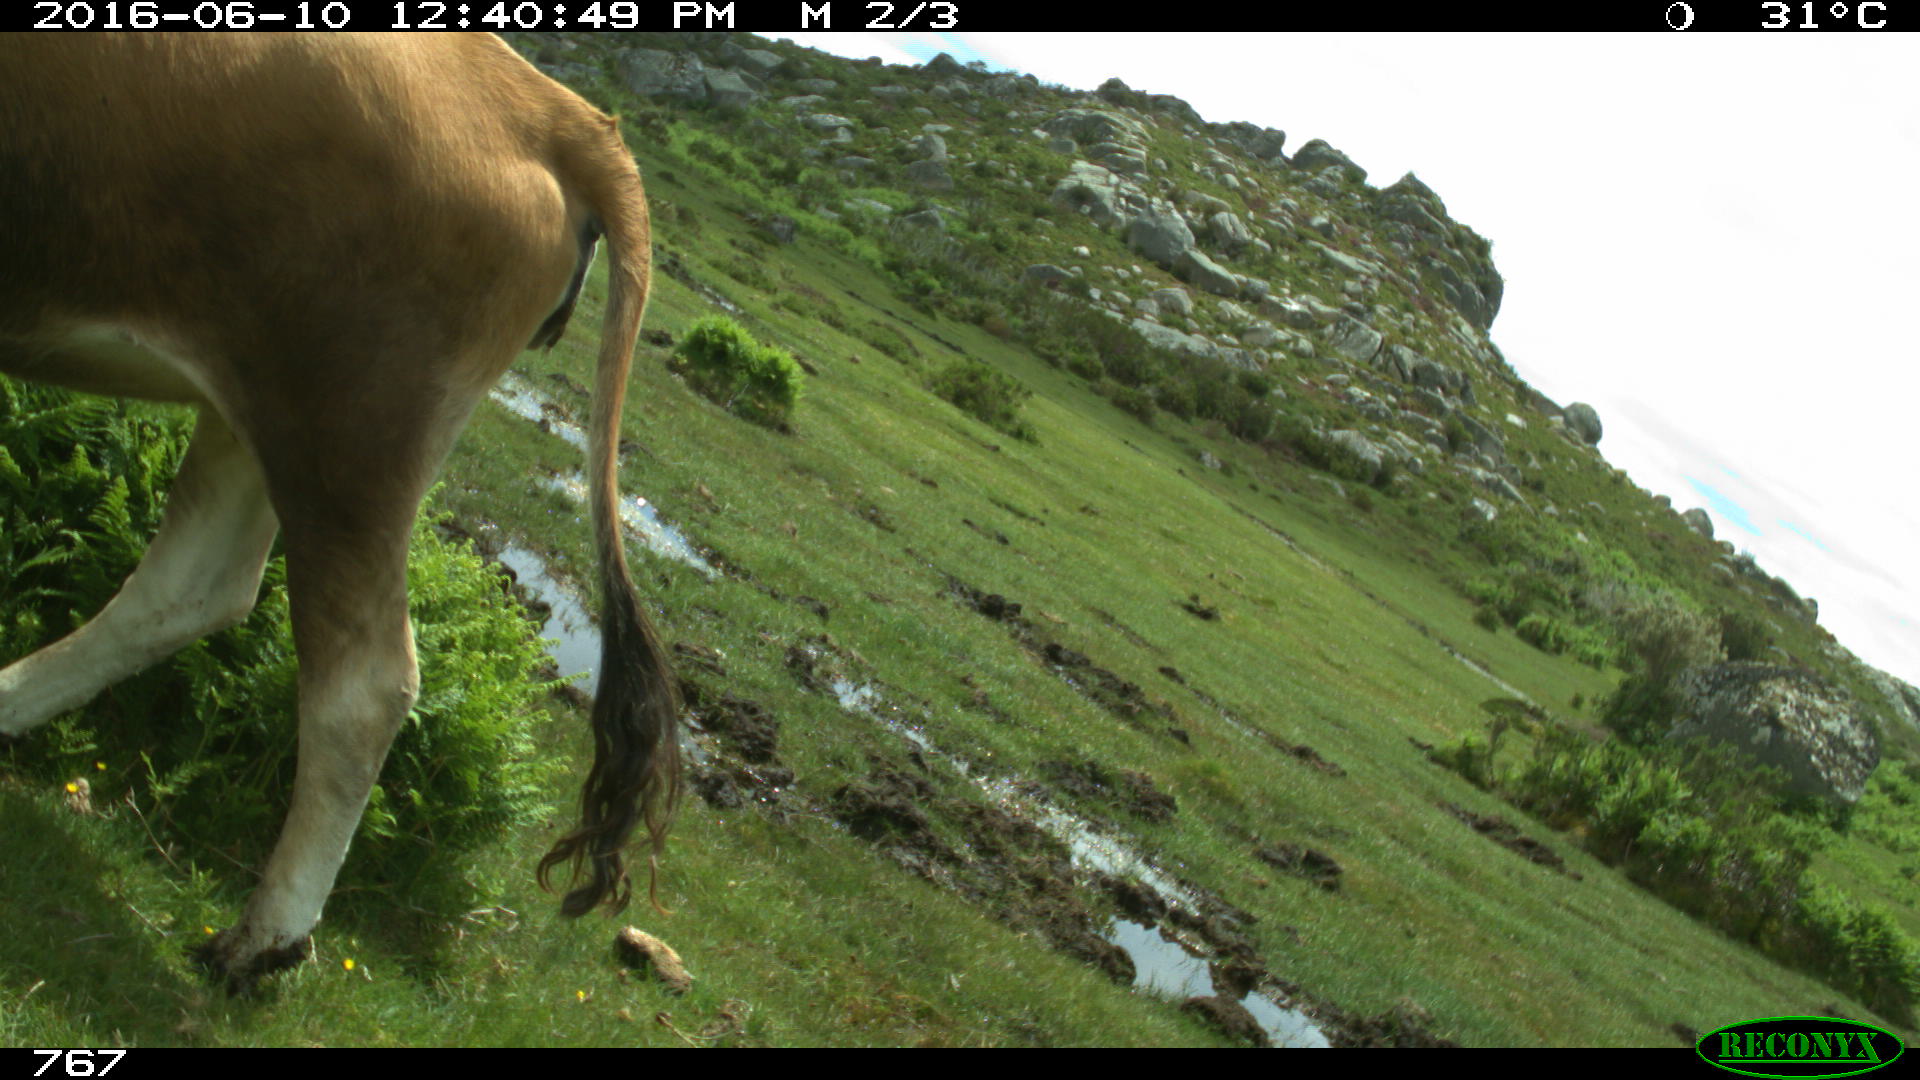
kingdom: Animalia
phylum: Chordata
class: Mammalia
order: Artiodactyla
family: Bovidae
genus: Bos
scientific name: Bos taurus
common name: Domesticated cattle
